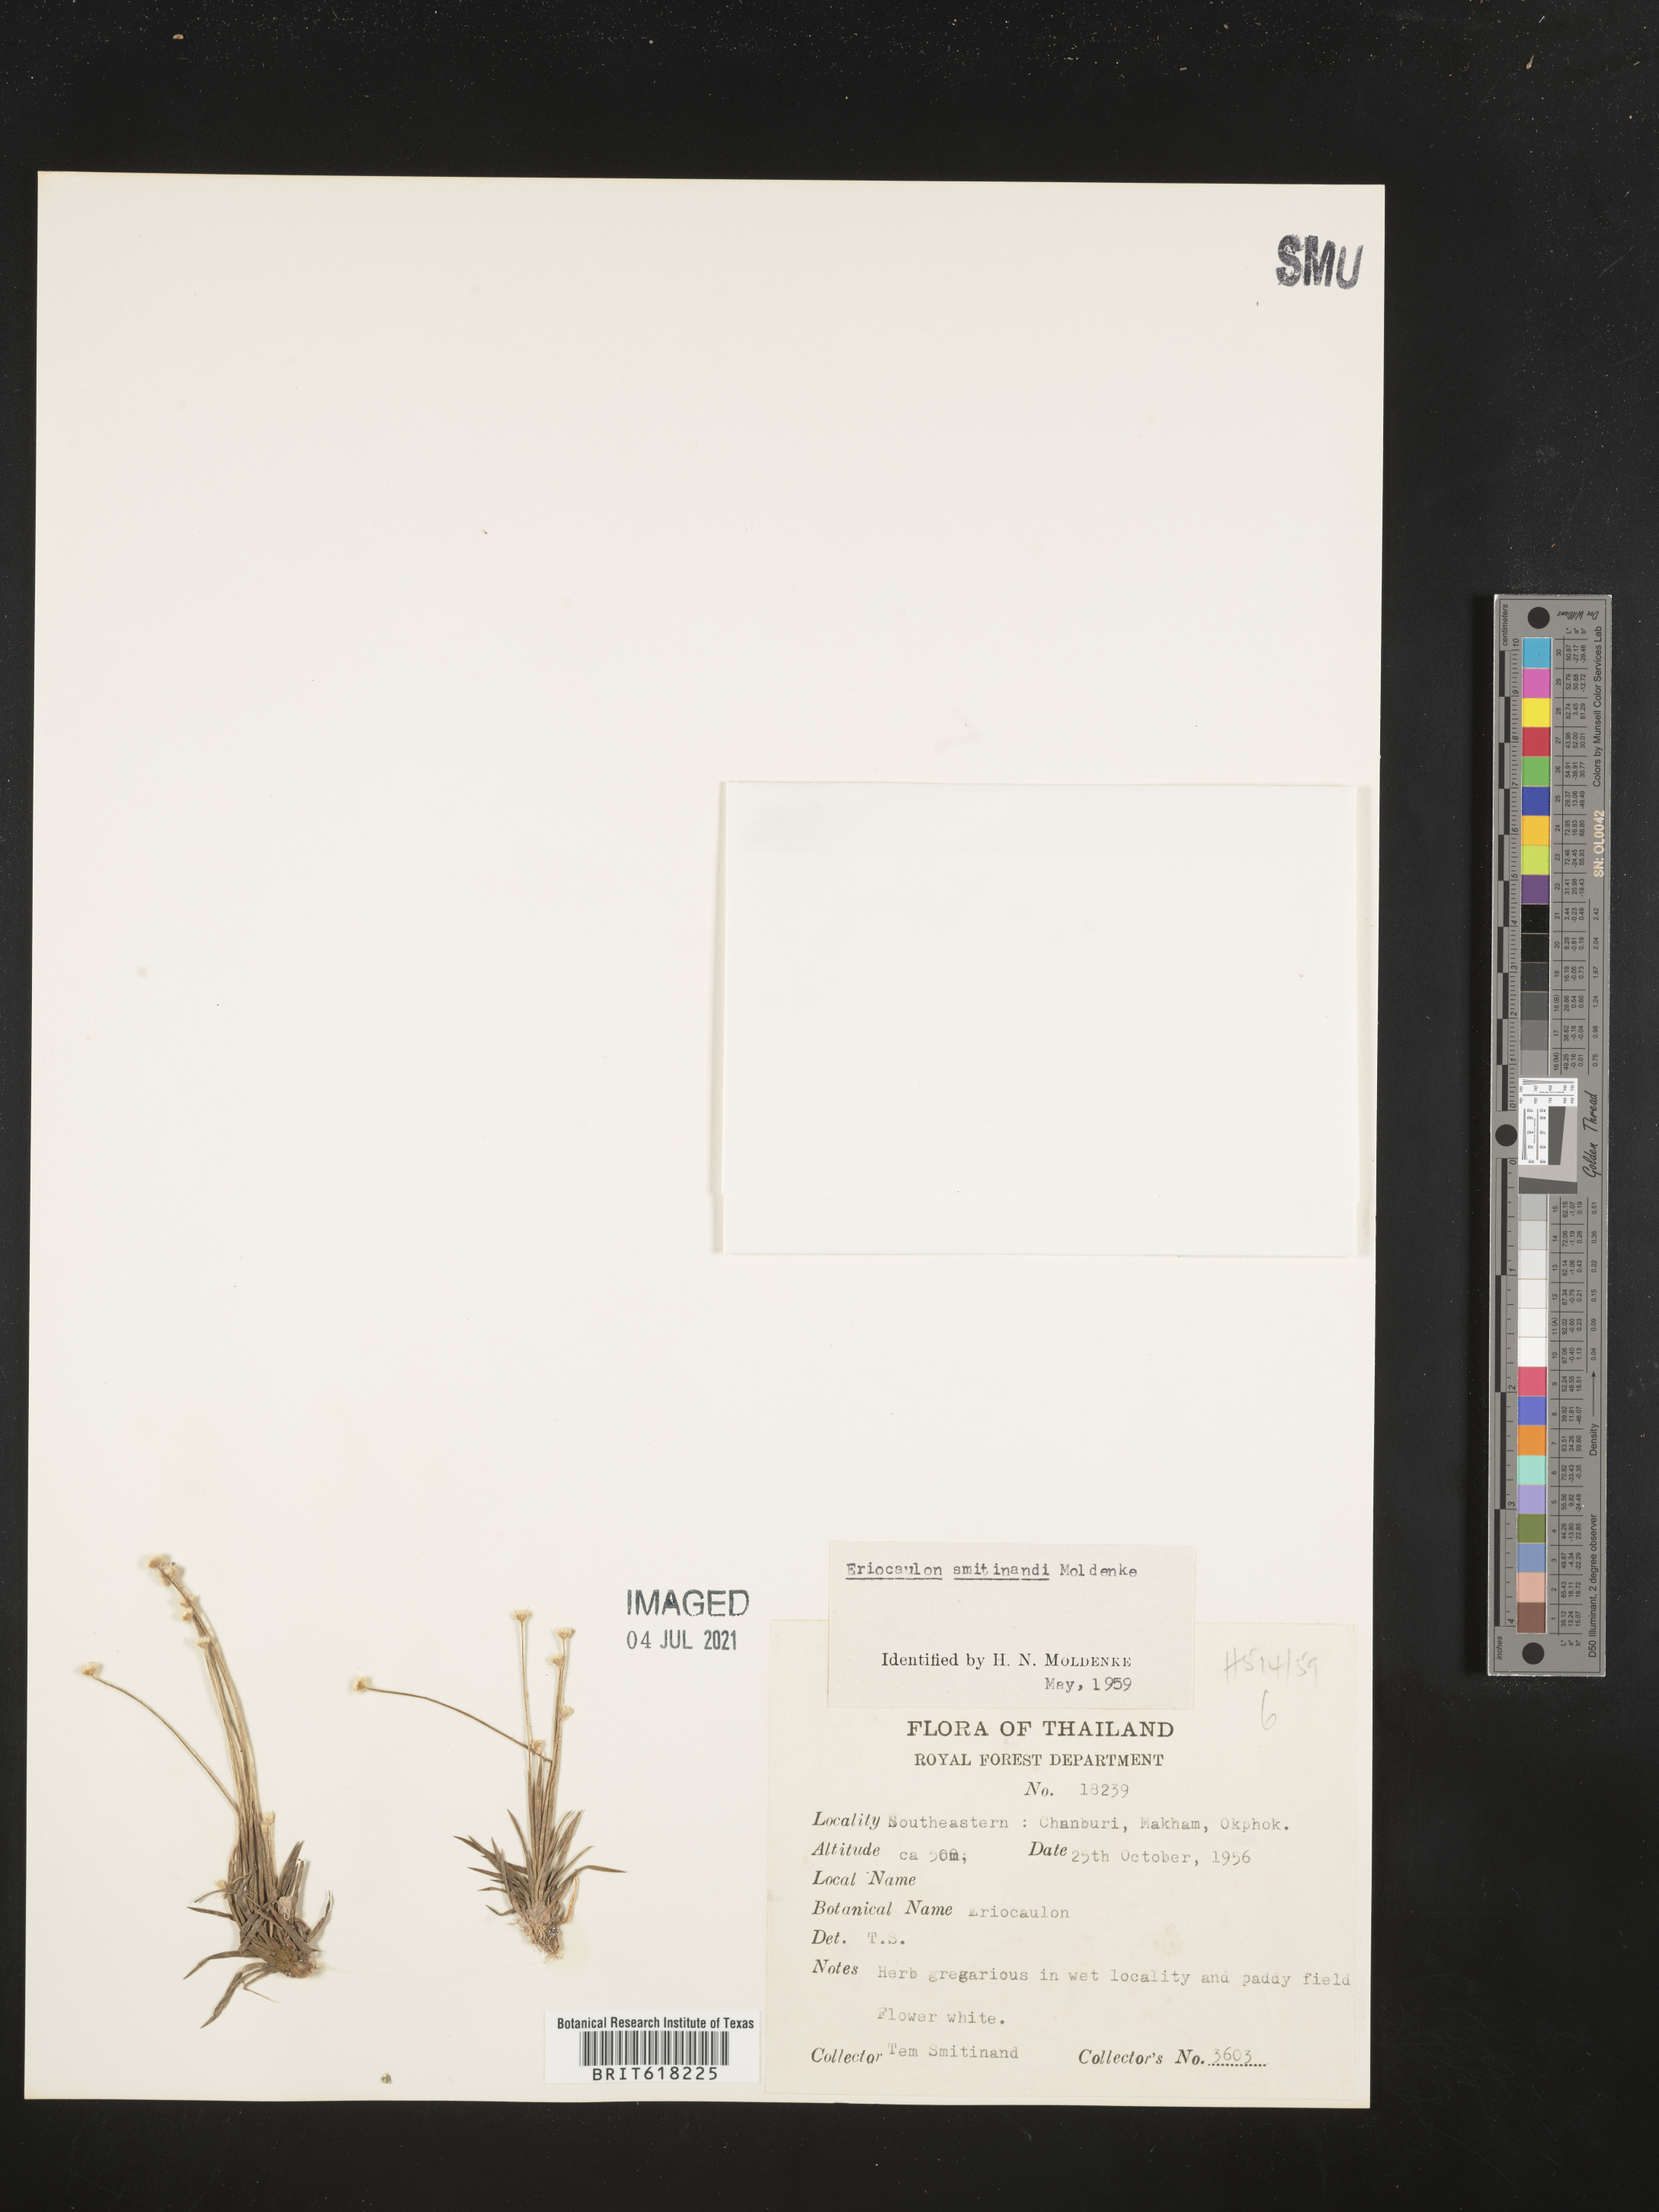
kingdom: Plantae
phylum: Tracheophyta
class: Liliopsida
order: Poales
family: Eriocaulaceae
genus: Eriocaulon
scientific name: Eriocaulon smitinandii
